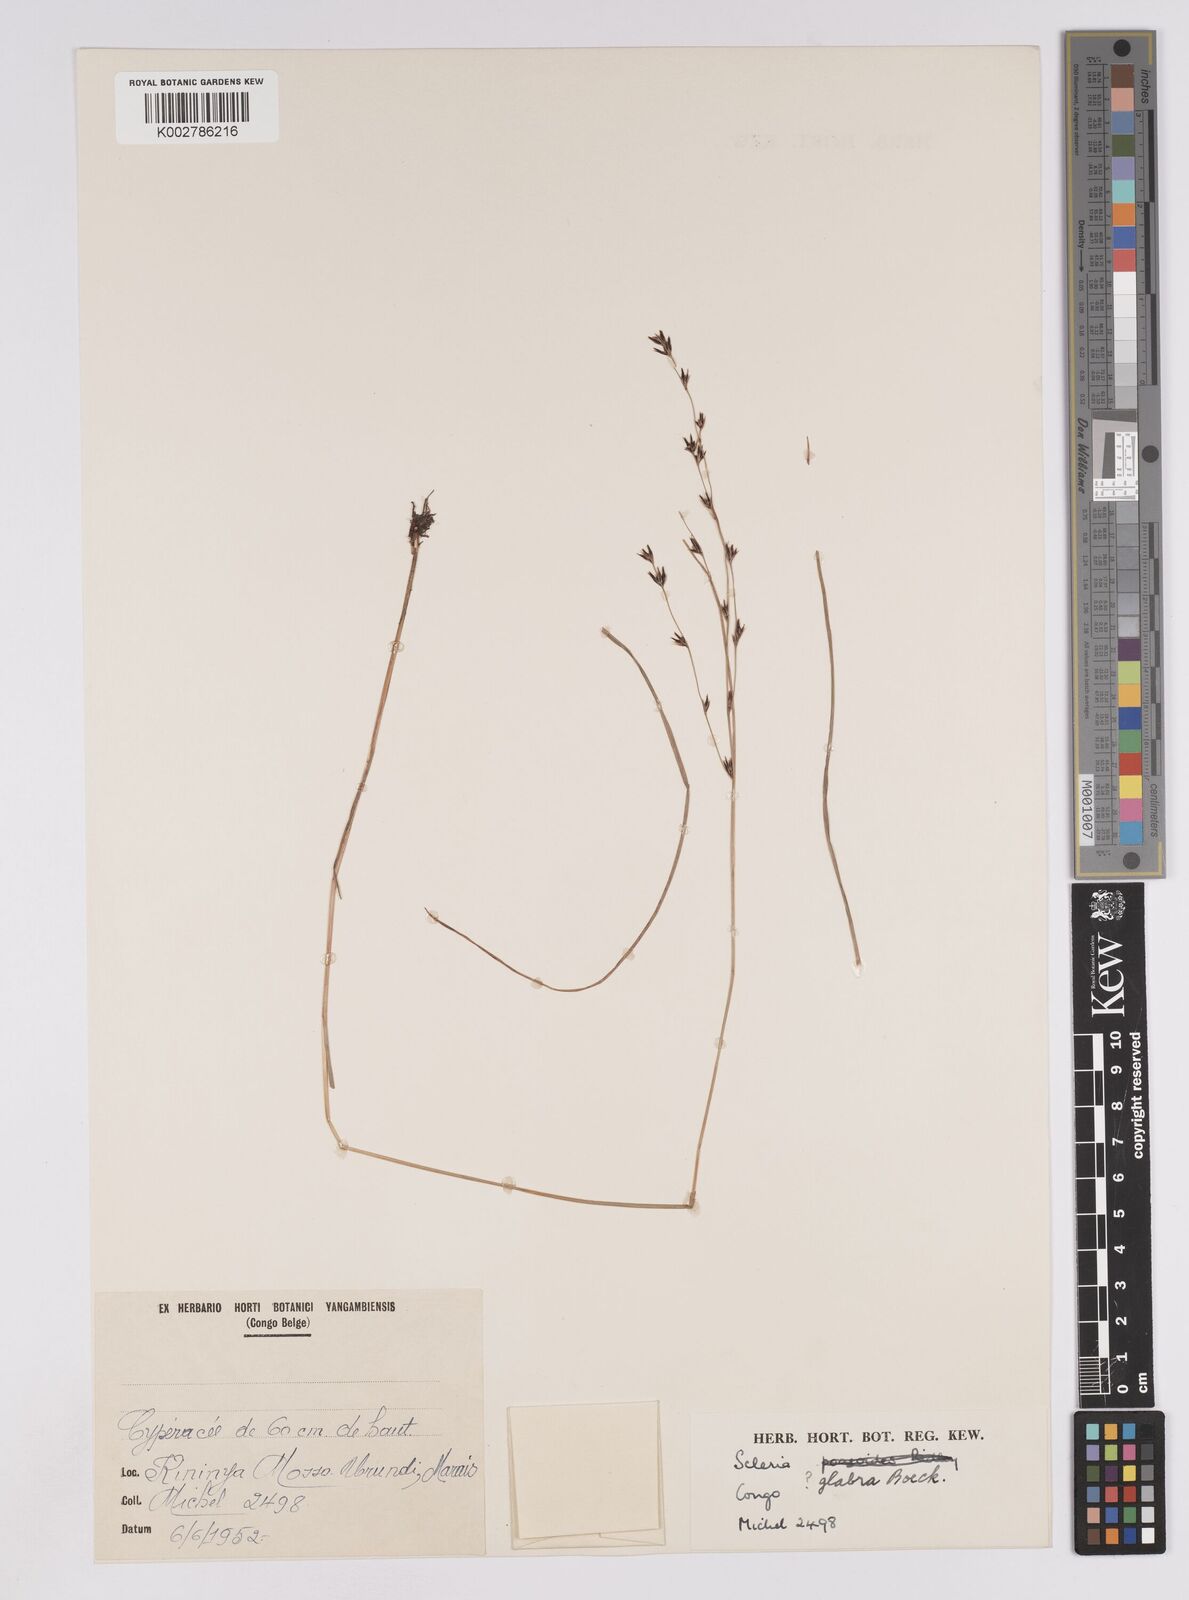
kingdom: Plantae
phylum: Tracheophyta
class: Liliopsida
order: Poales
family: Cyperaceae
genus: Scleria
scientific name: Scleria glabra
